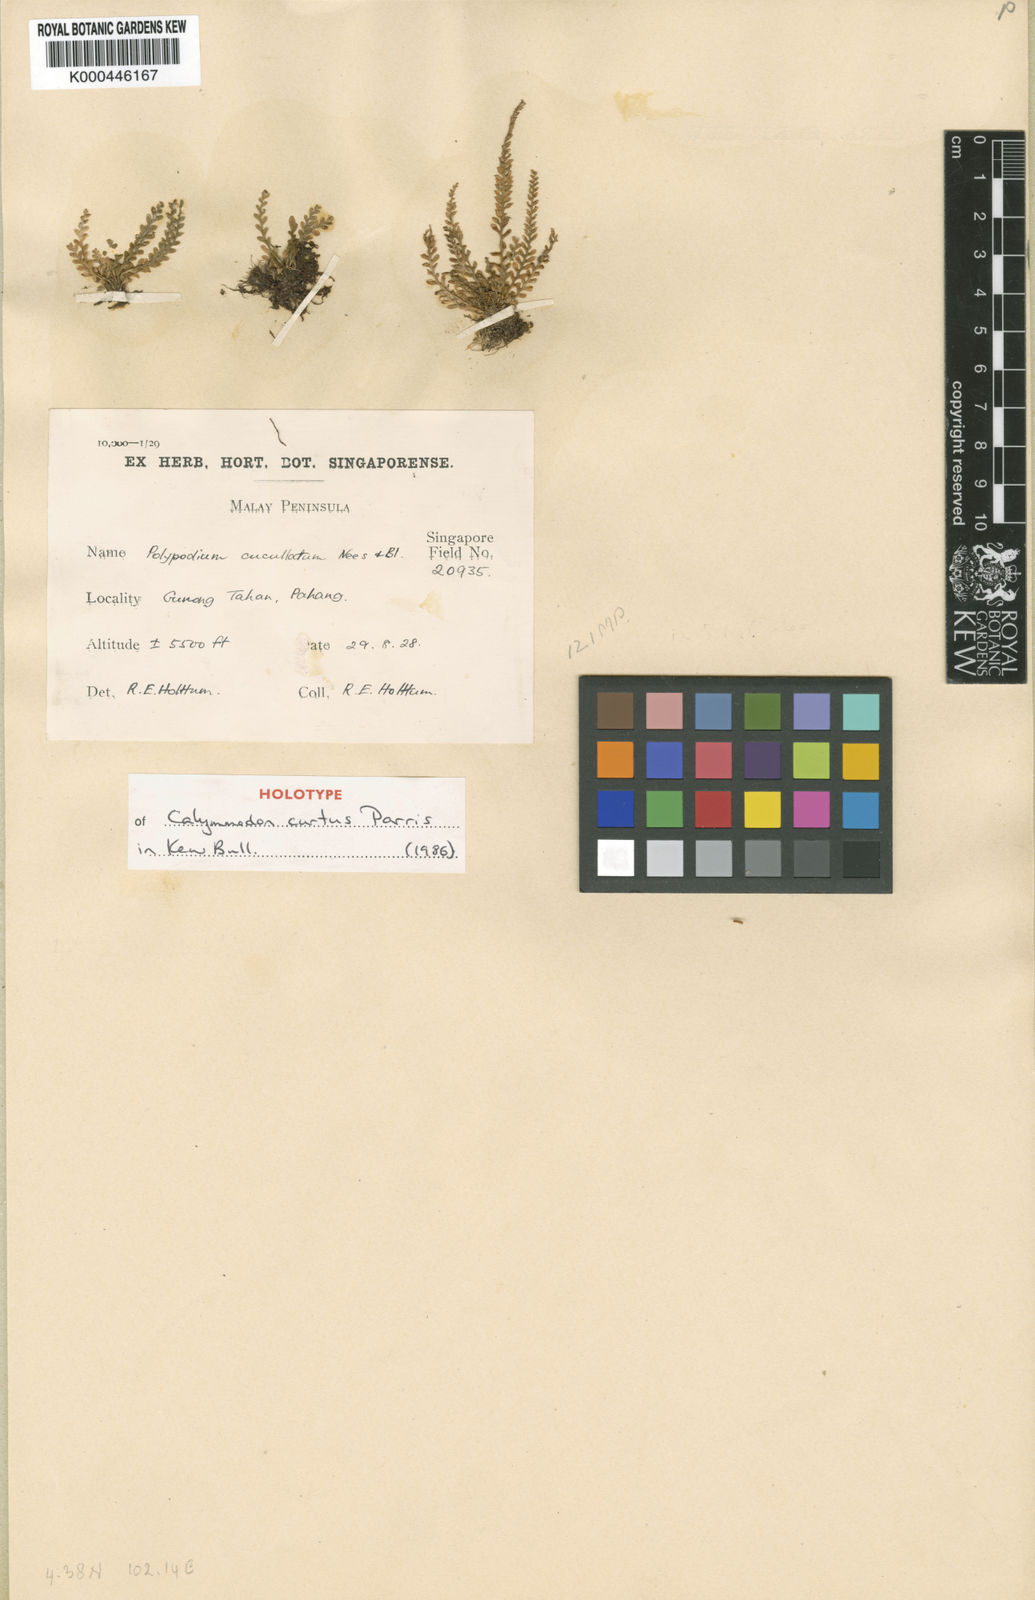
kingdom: Plantae
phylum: Tracheophyta
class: Polypodiopsida
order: Polypodiales
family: Polypodiaceae
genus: Calymmodon
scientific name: Calymmodon curtus
